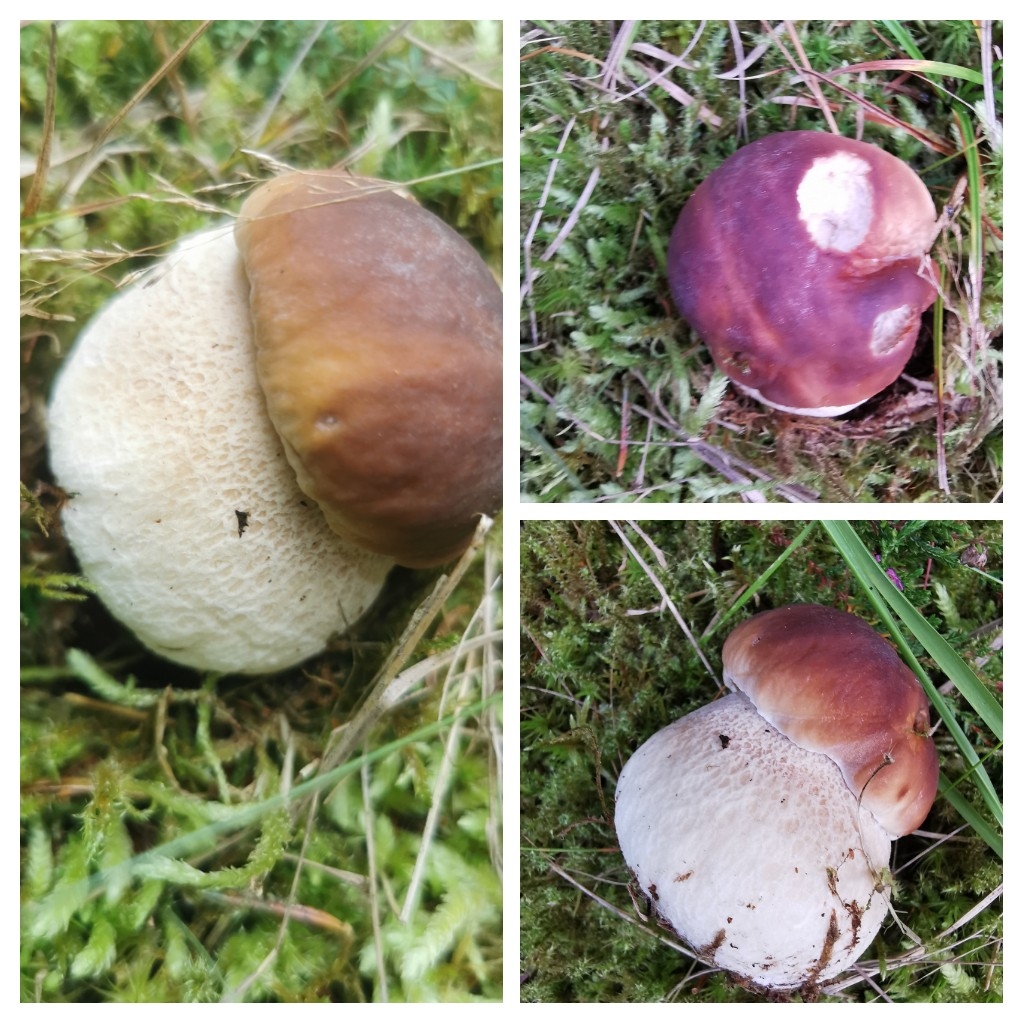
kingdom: Fungi
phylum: Basidiomycota
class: Agaricomycetes
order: Boletales
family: Boletaceae
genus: Boletus
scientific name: Boletus edulis
